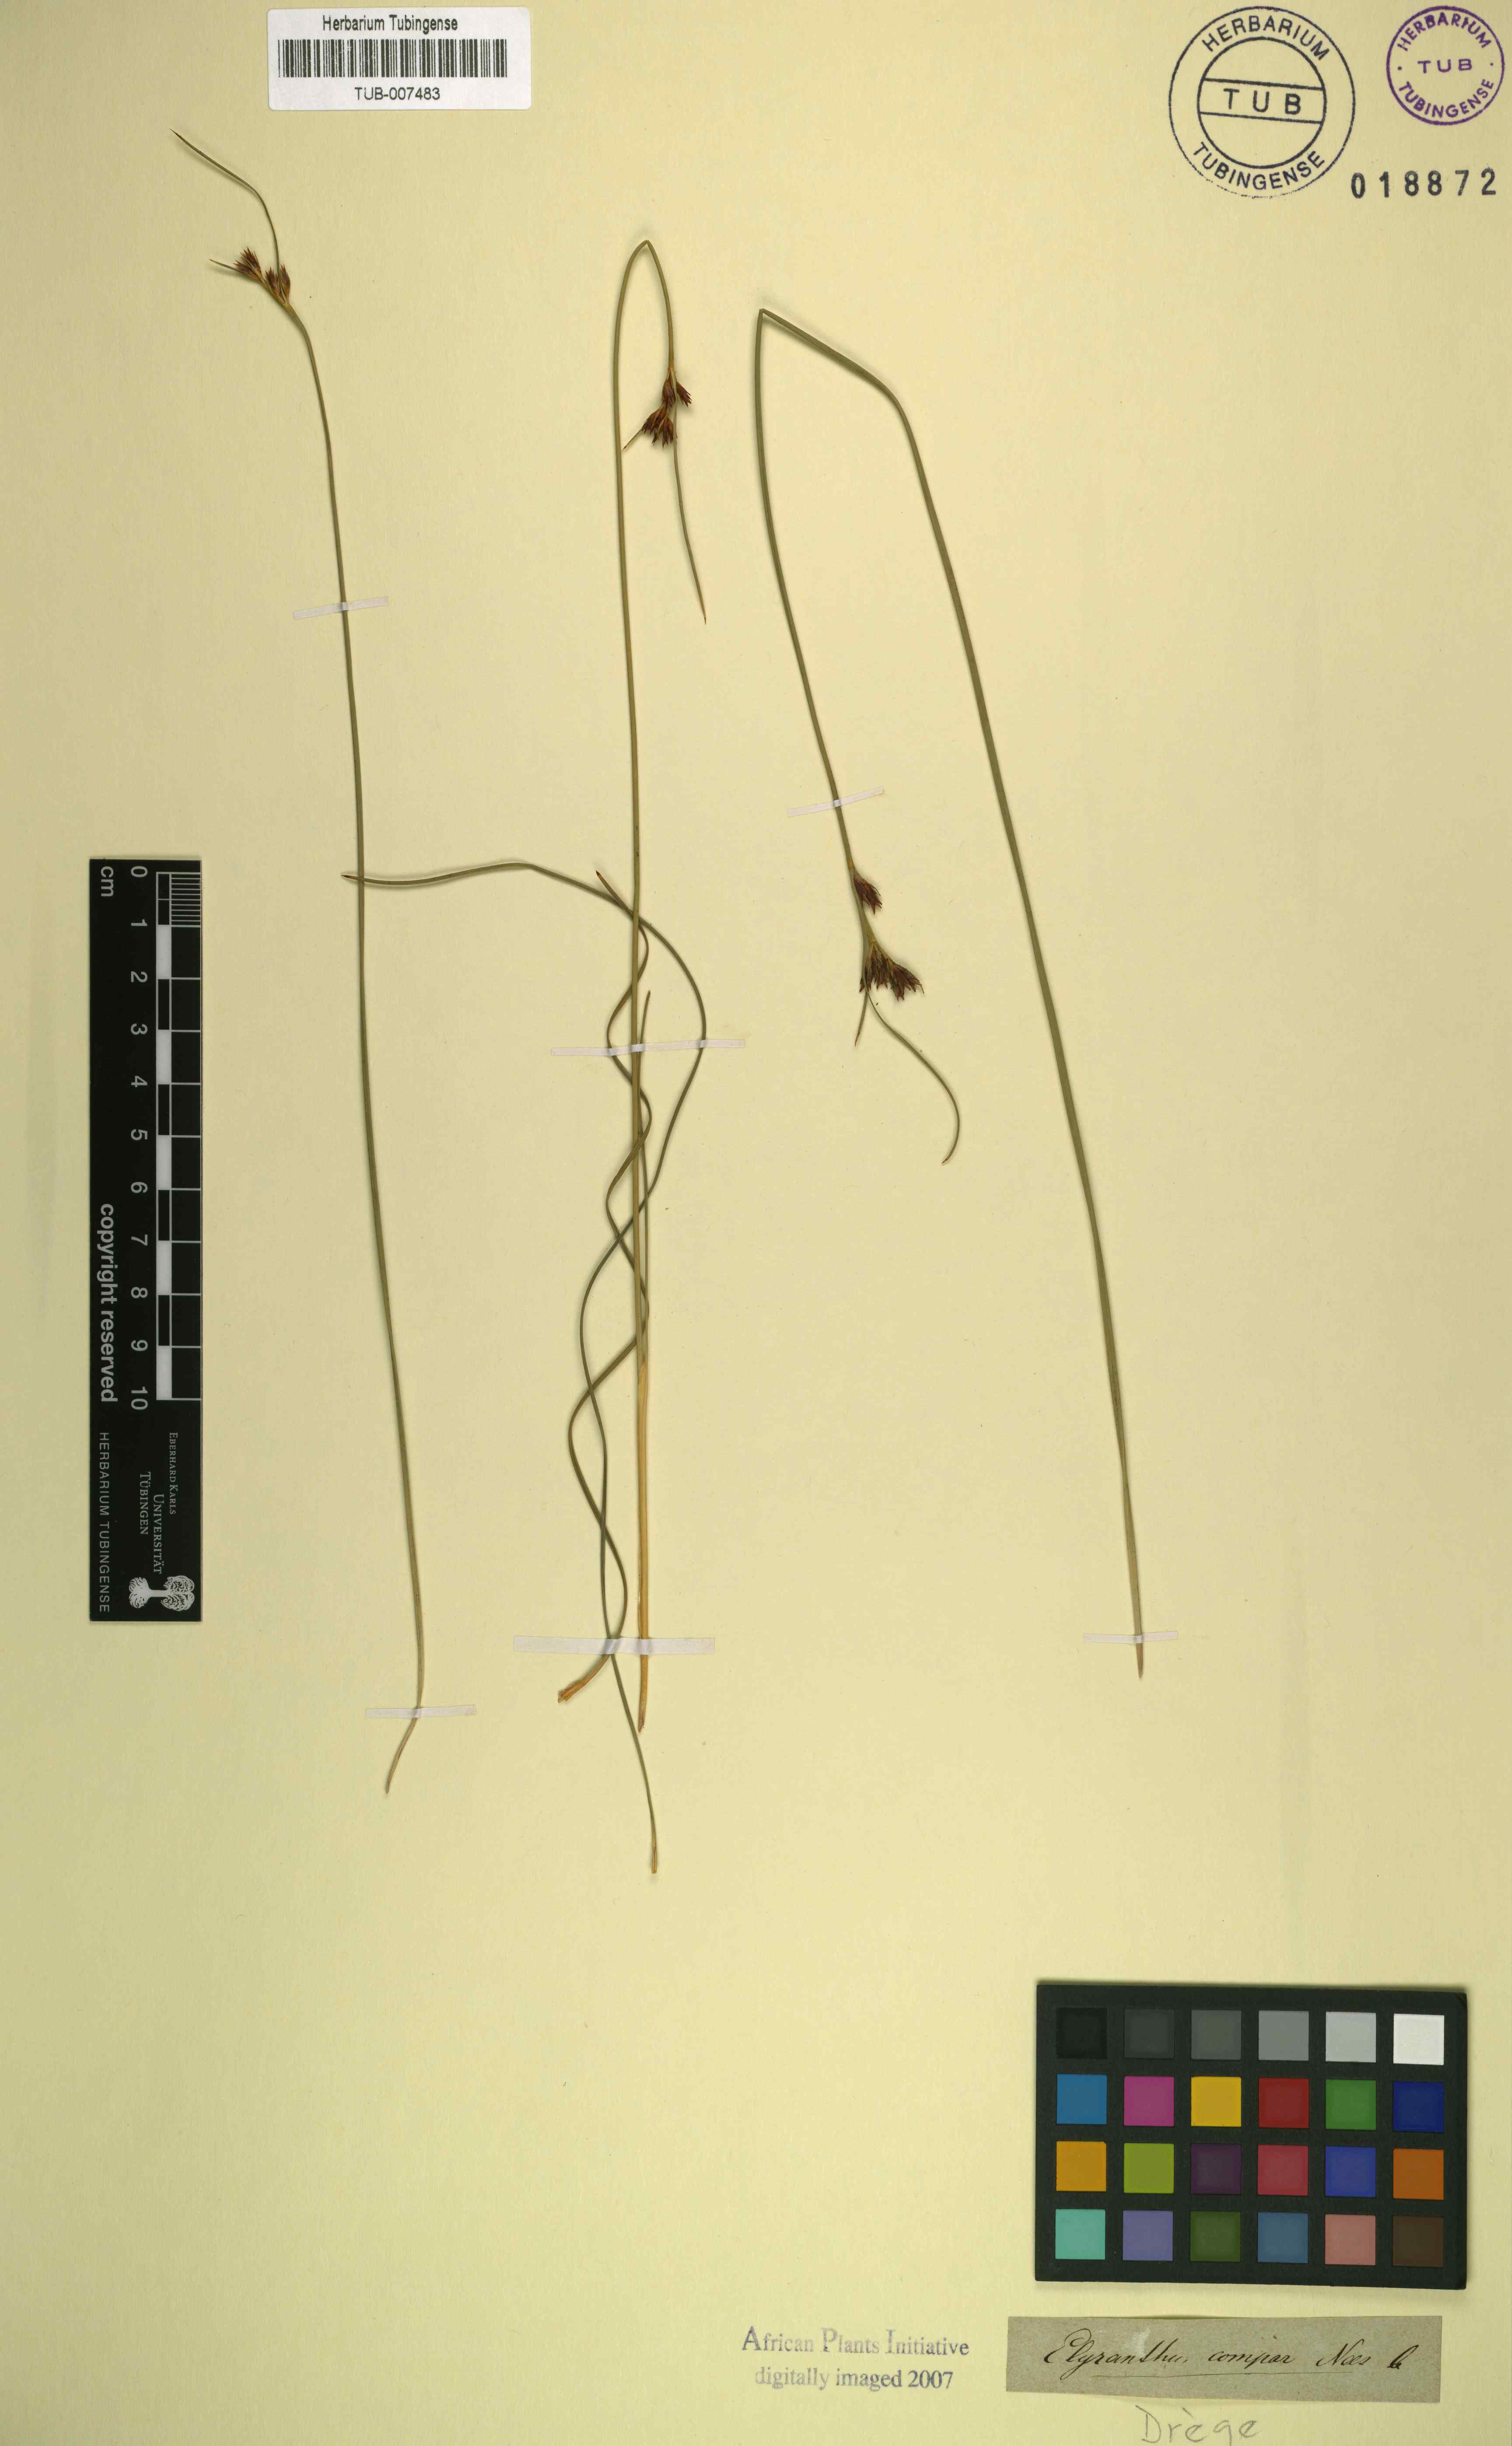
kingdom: Plantae
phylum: Tracheophyta
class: Liliopsida
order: Poales
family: Cyperaceae
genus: Schoenus
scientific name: Schoenus compar
